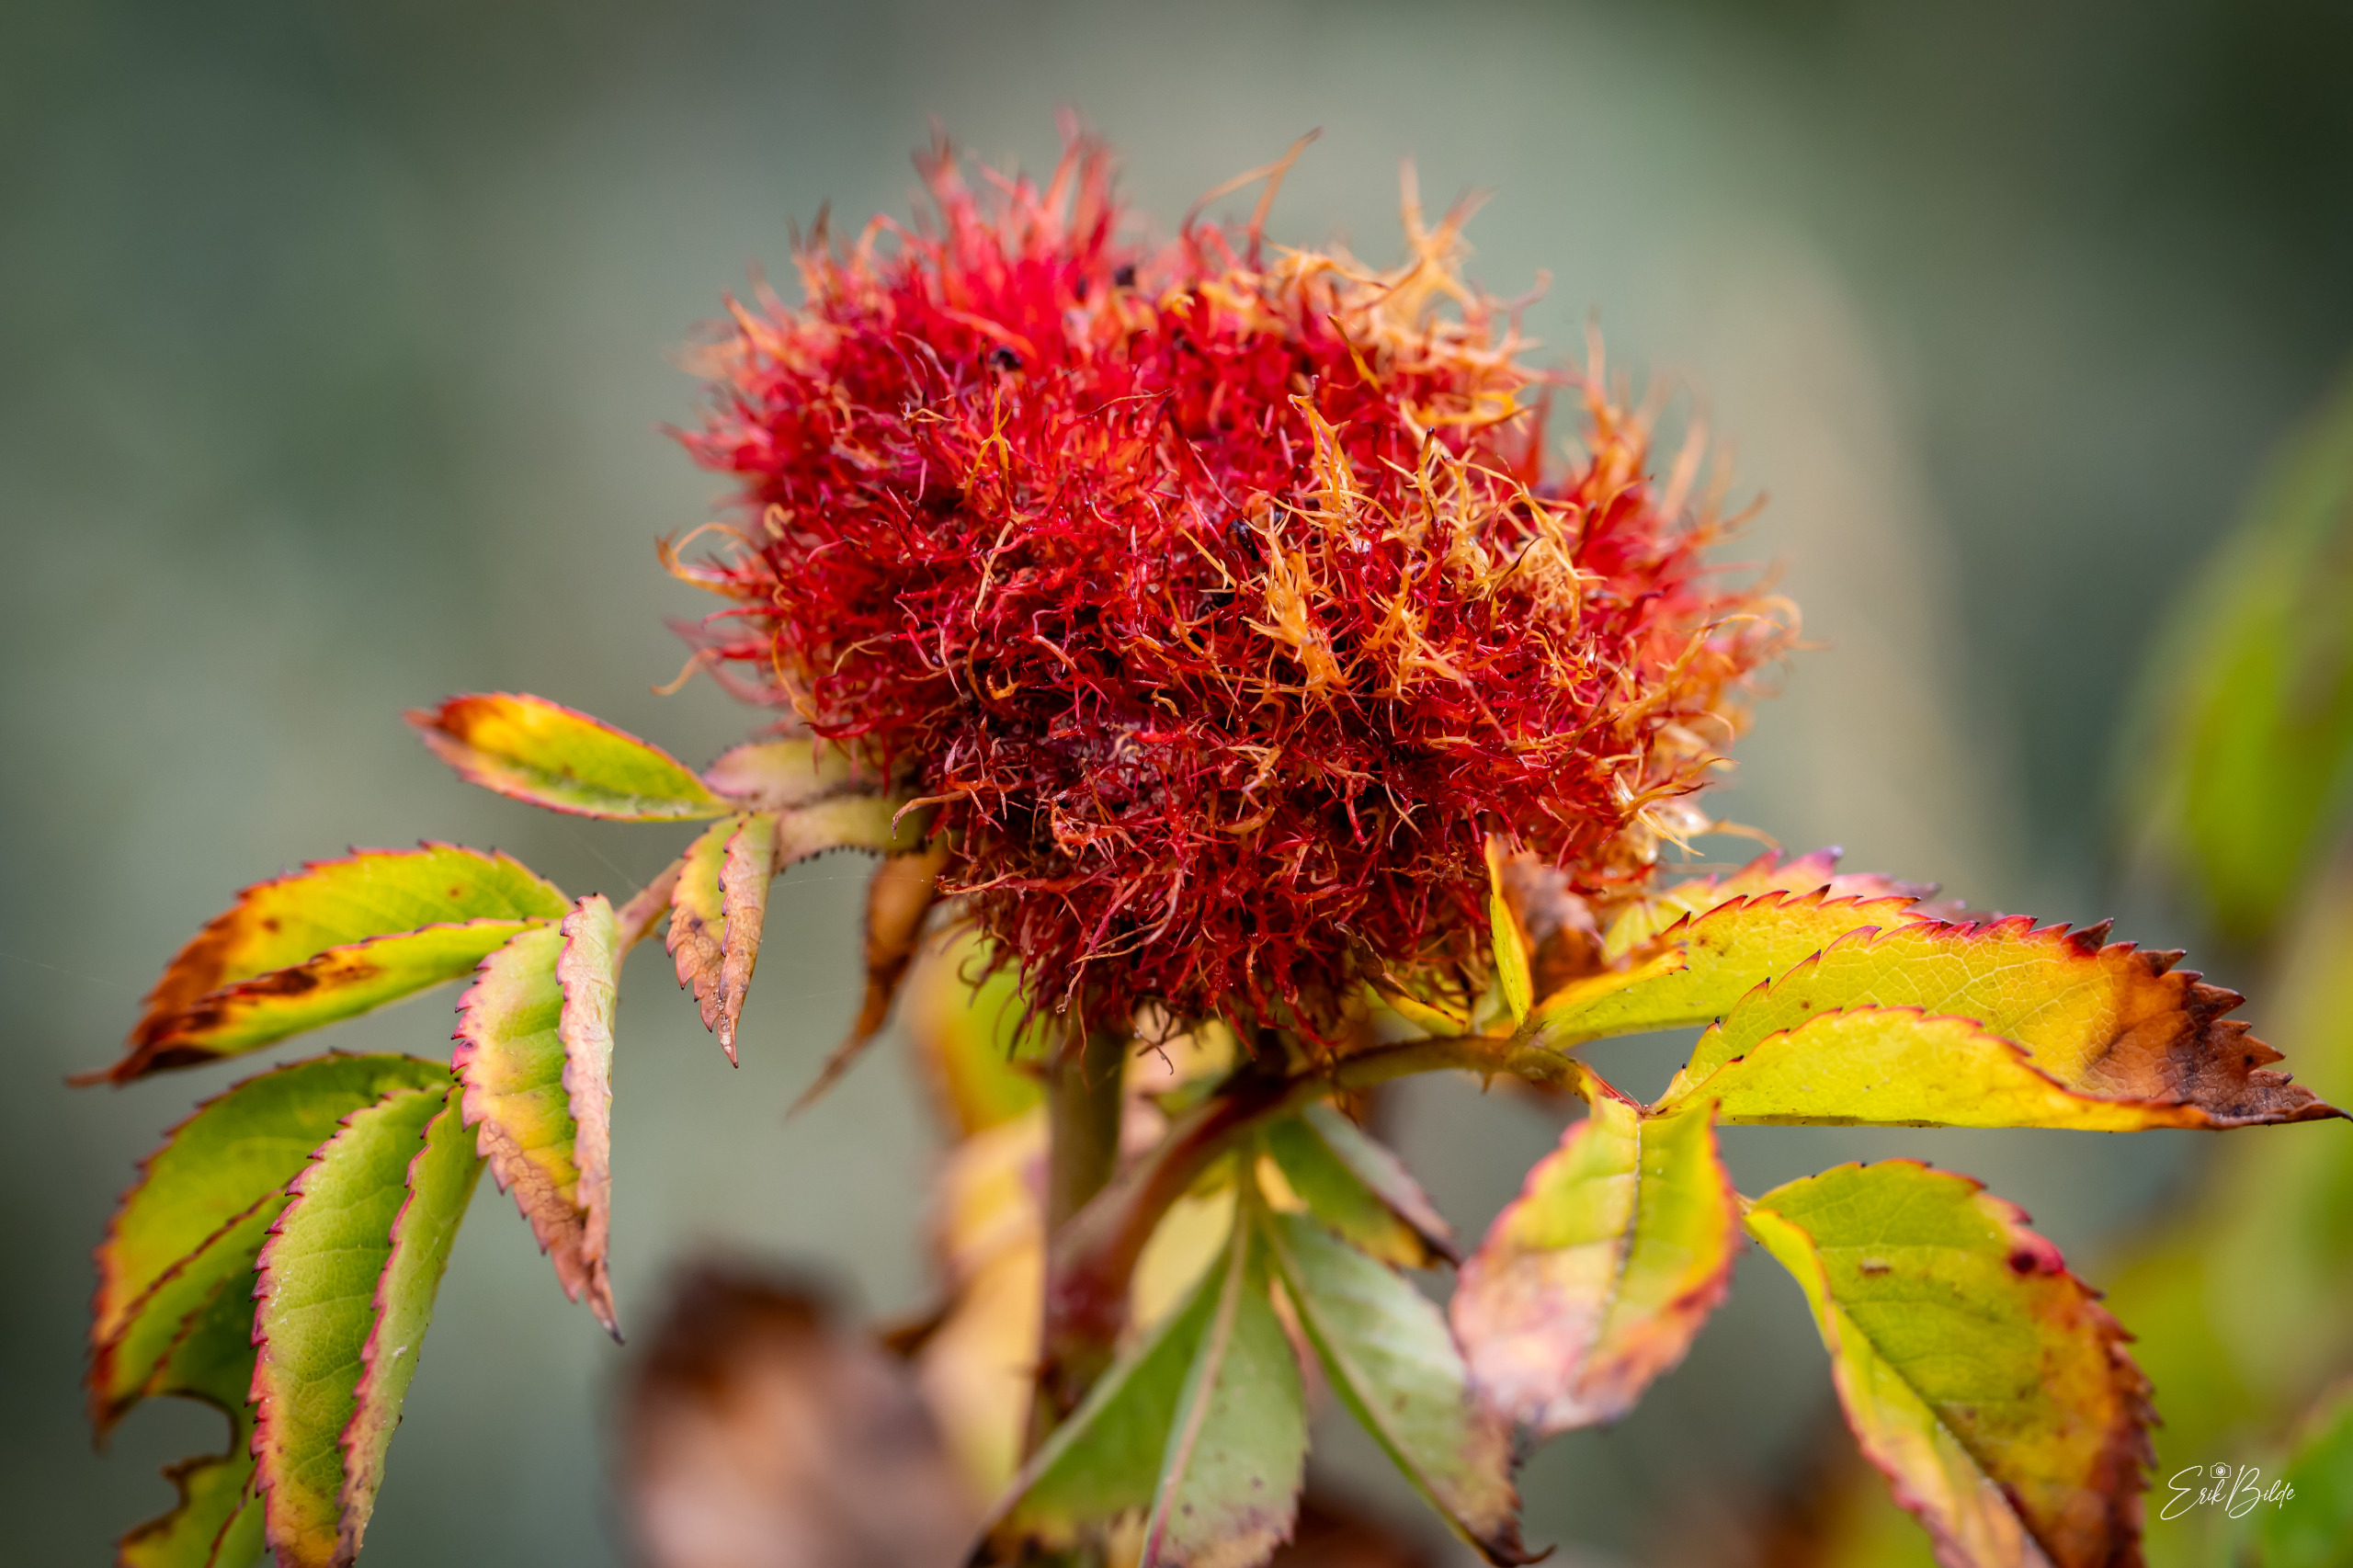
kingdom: Animalia
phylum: Arthropoda
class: Insecta
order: Hymenoptera
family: Cynipidae
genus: Diplolepis
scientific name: Diplolepis rosae
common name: Bedeguargalhveps
